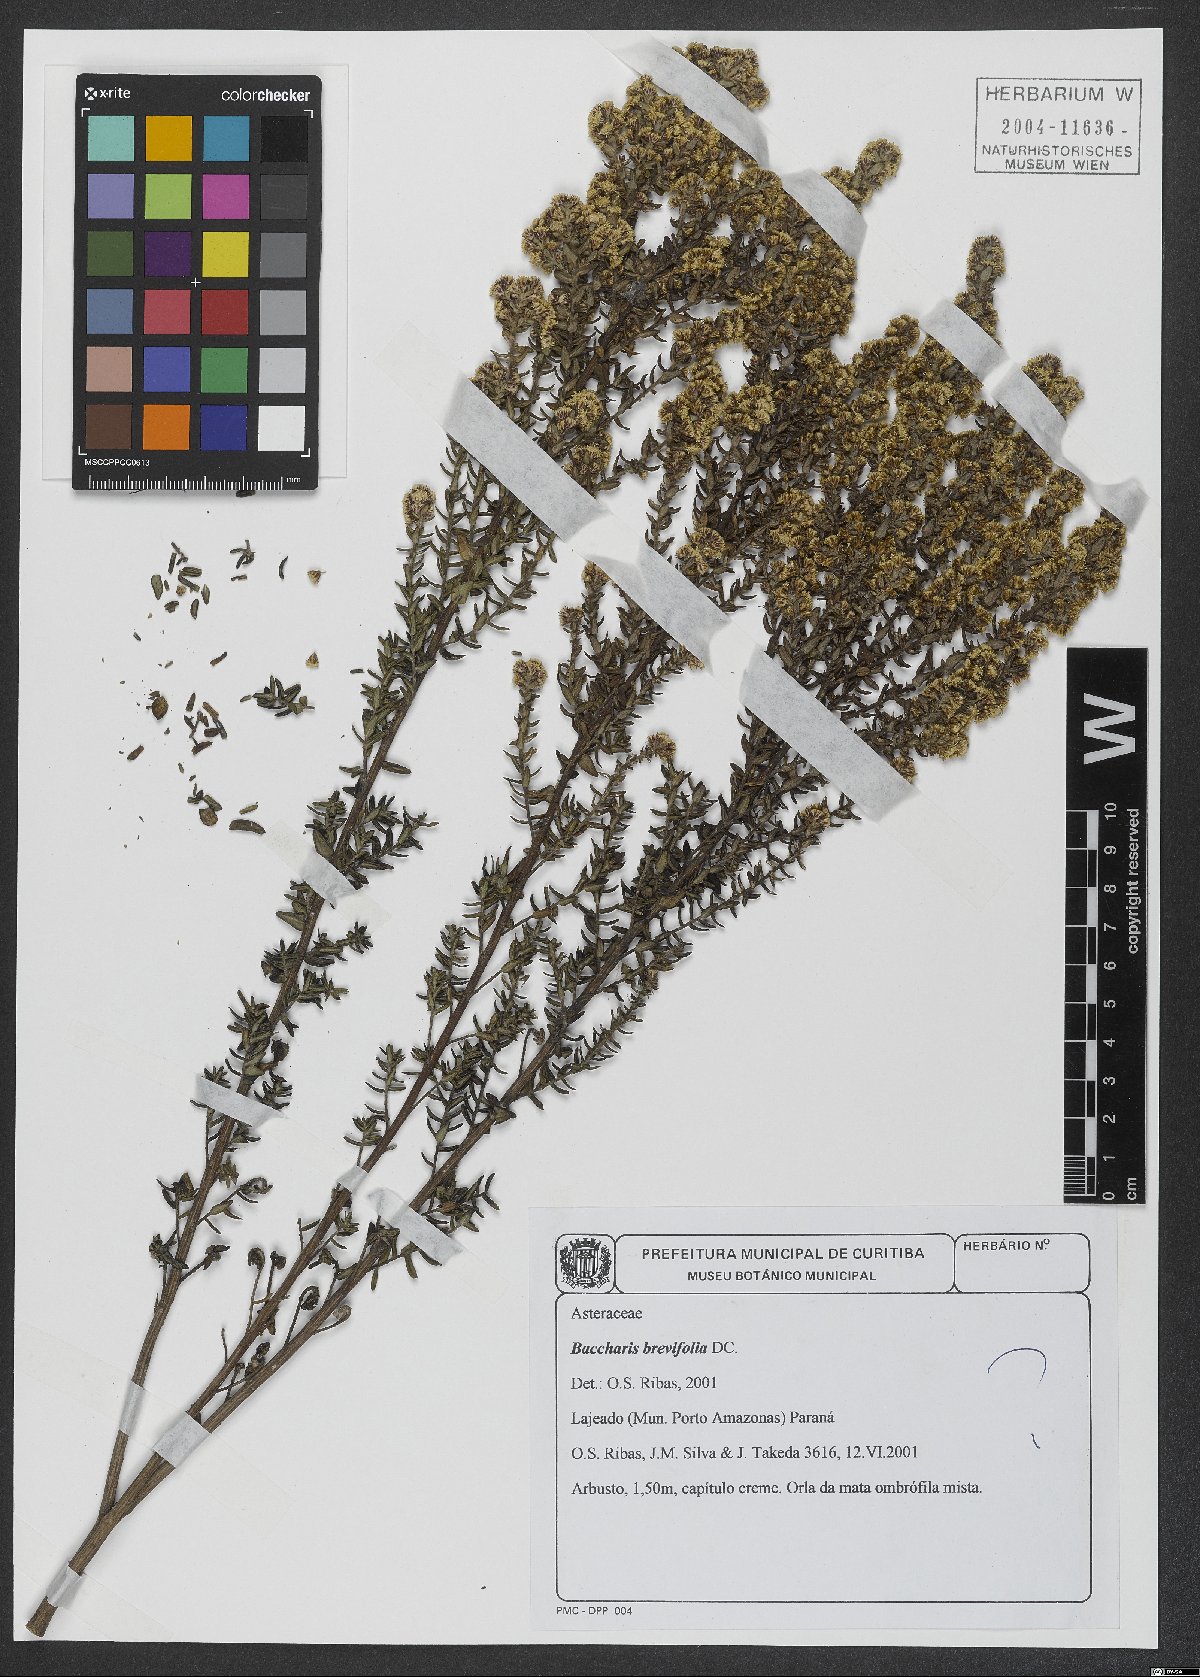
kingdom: Plantae
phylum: Tracheophyta
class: Magnoliopsida
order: Asterales
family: Asteraceae
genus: Baccharis
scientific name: Baccharis brevifolia
